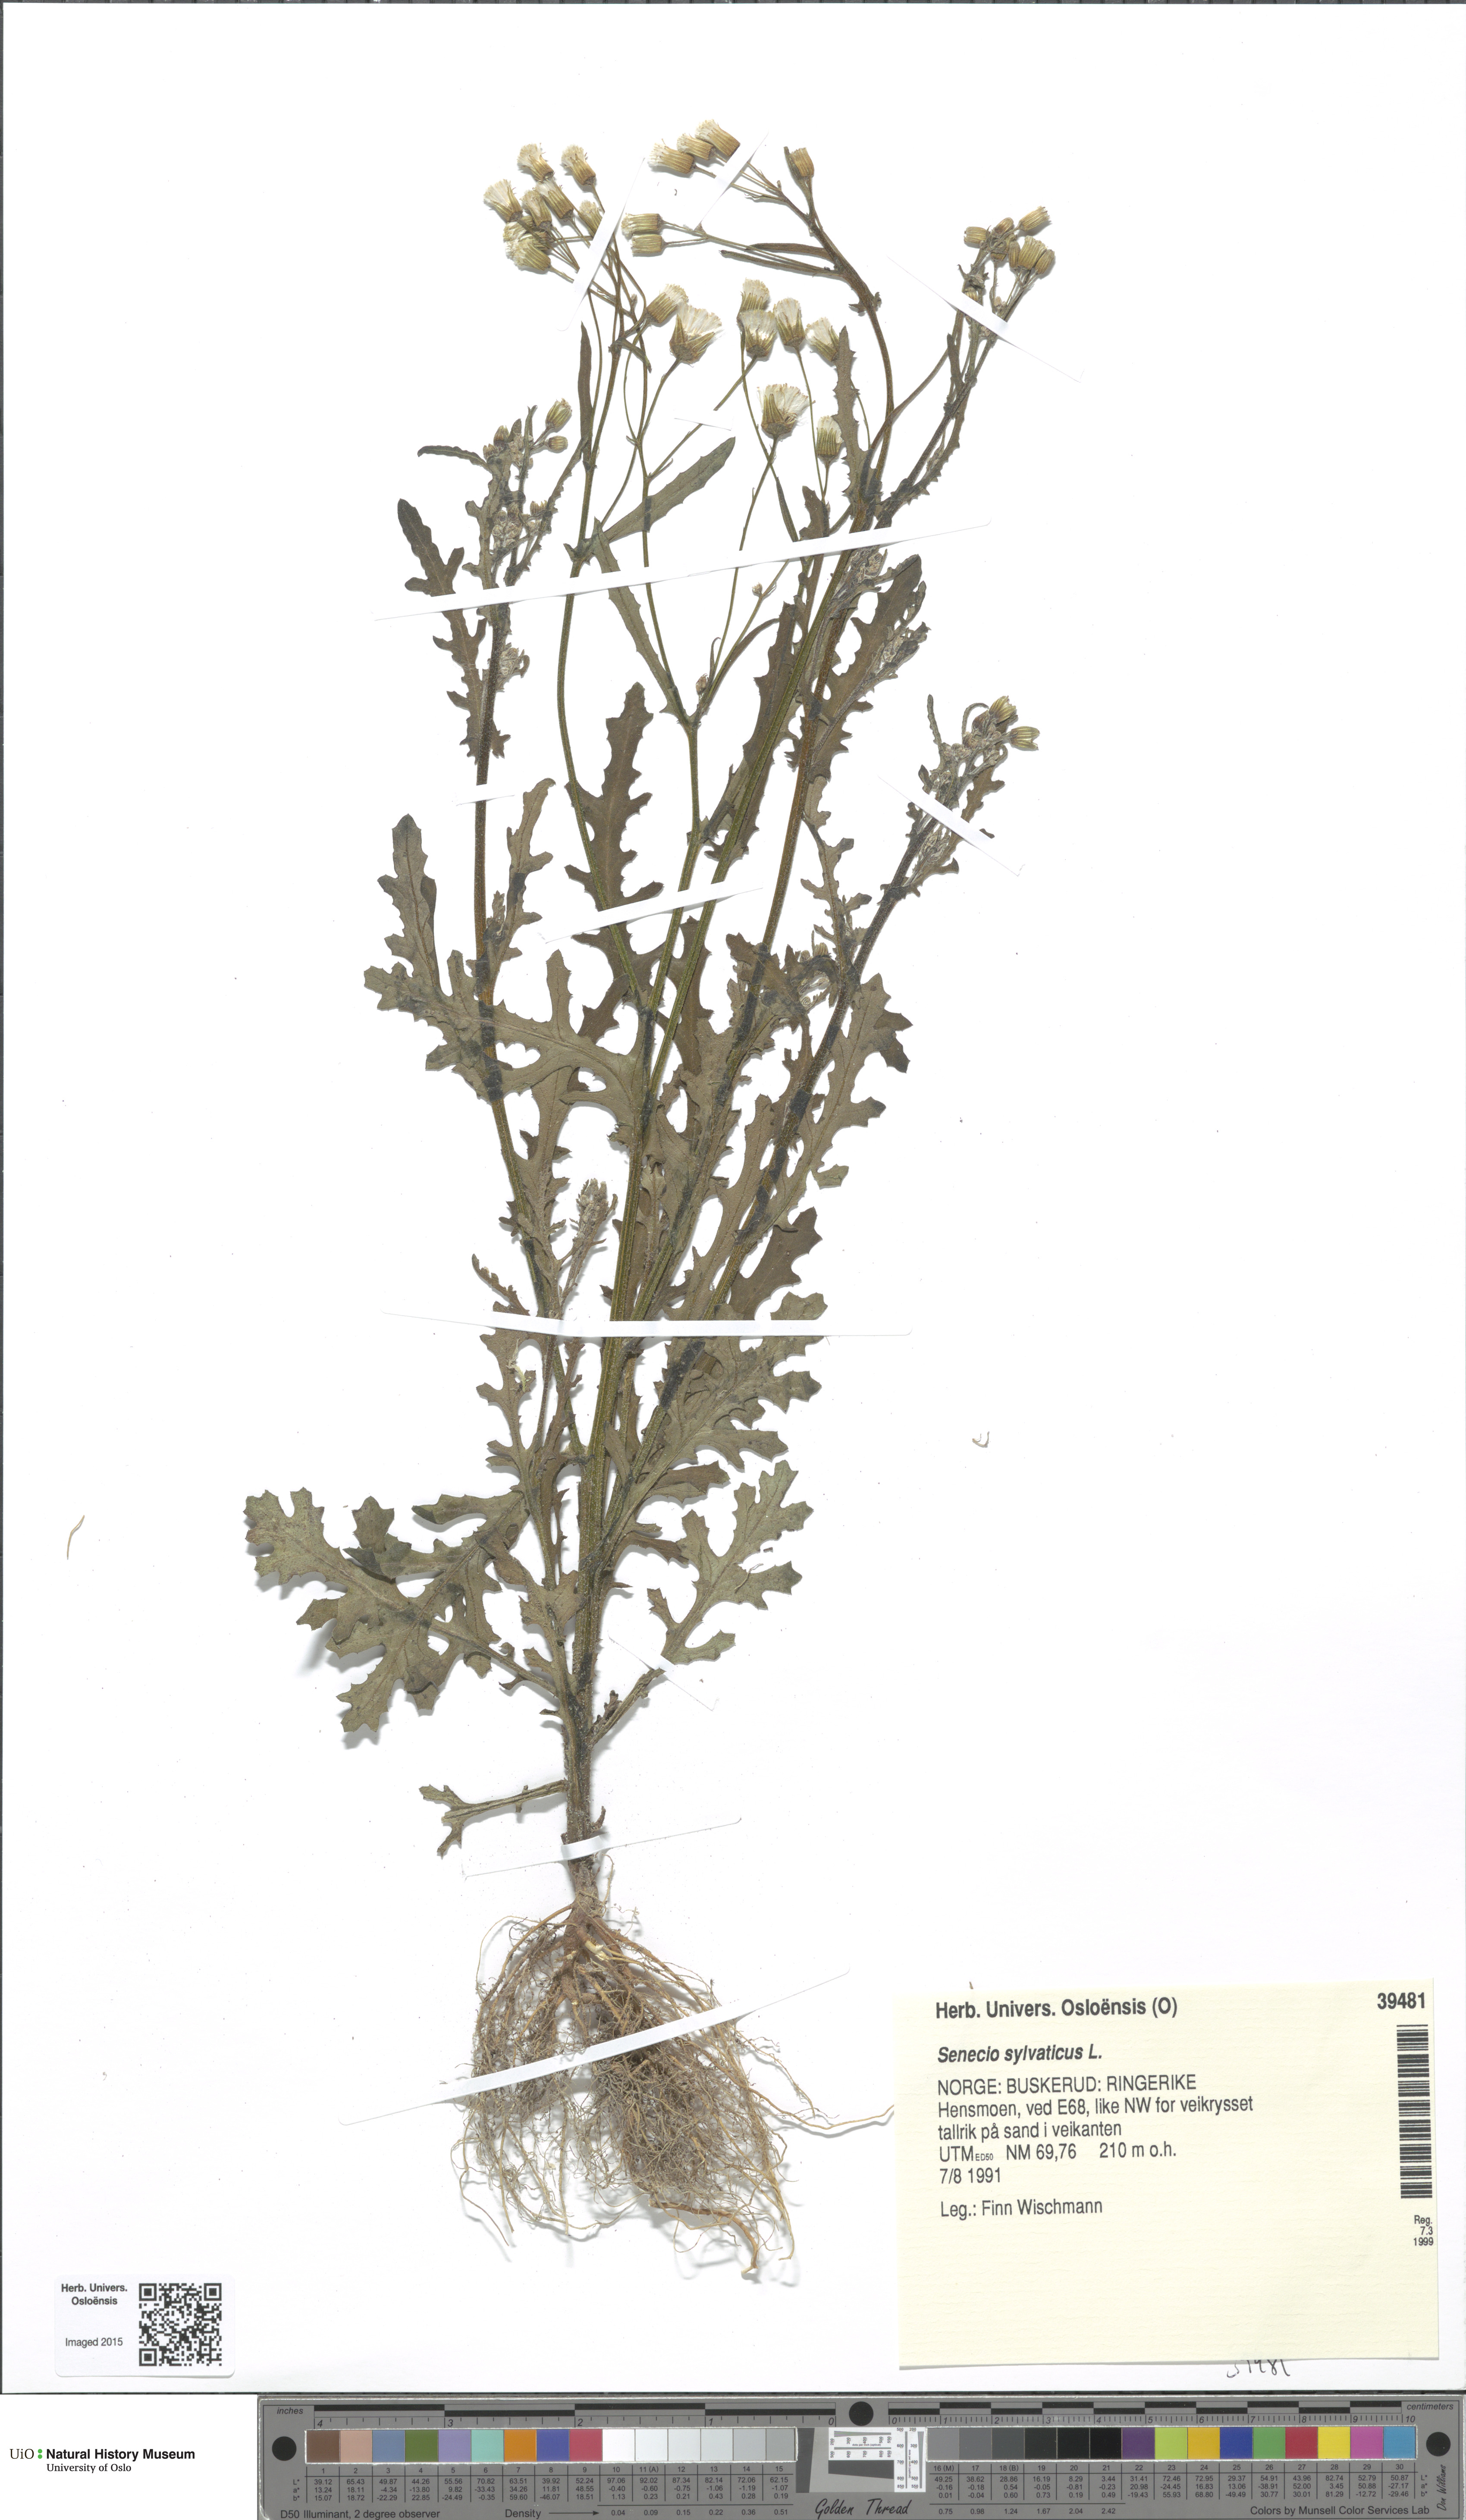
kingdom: Plantae
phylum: Tracheophyta
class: Magnoliopsida
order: Asterales
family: Asteraceae
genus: Senecio
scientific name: Senecio sylvaticus
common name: Woodland ragwort
